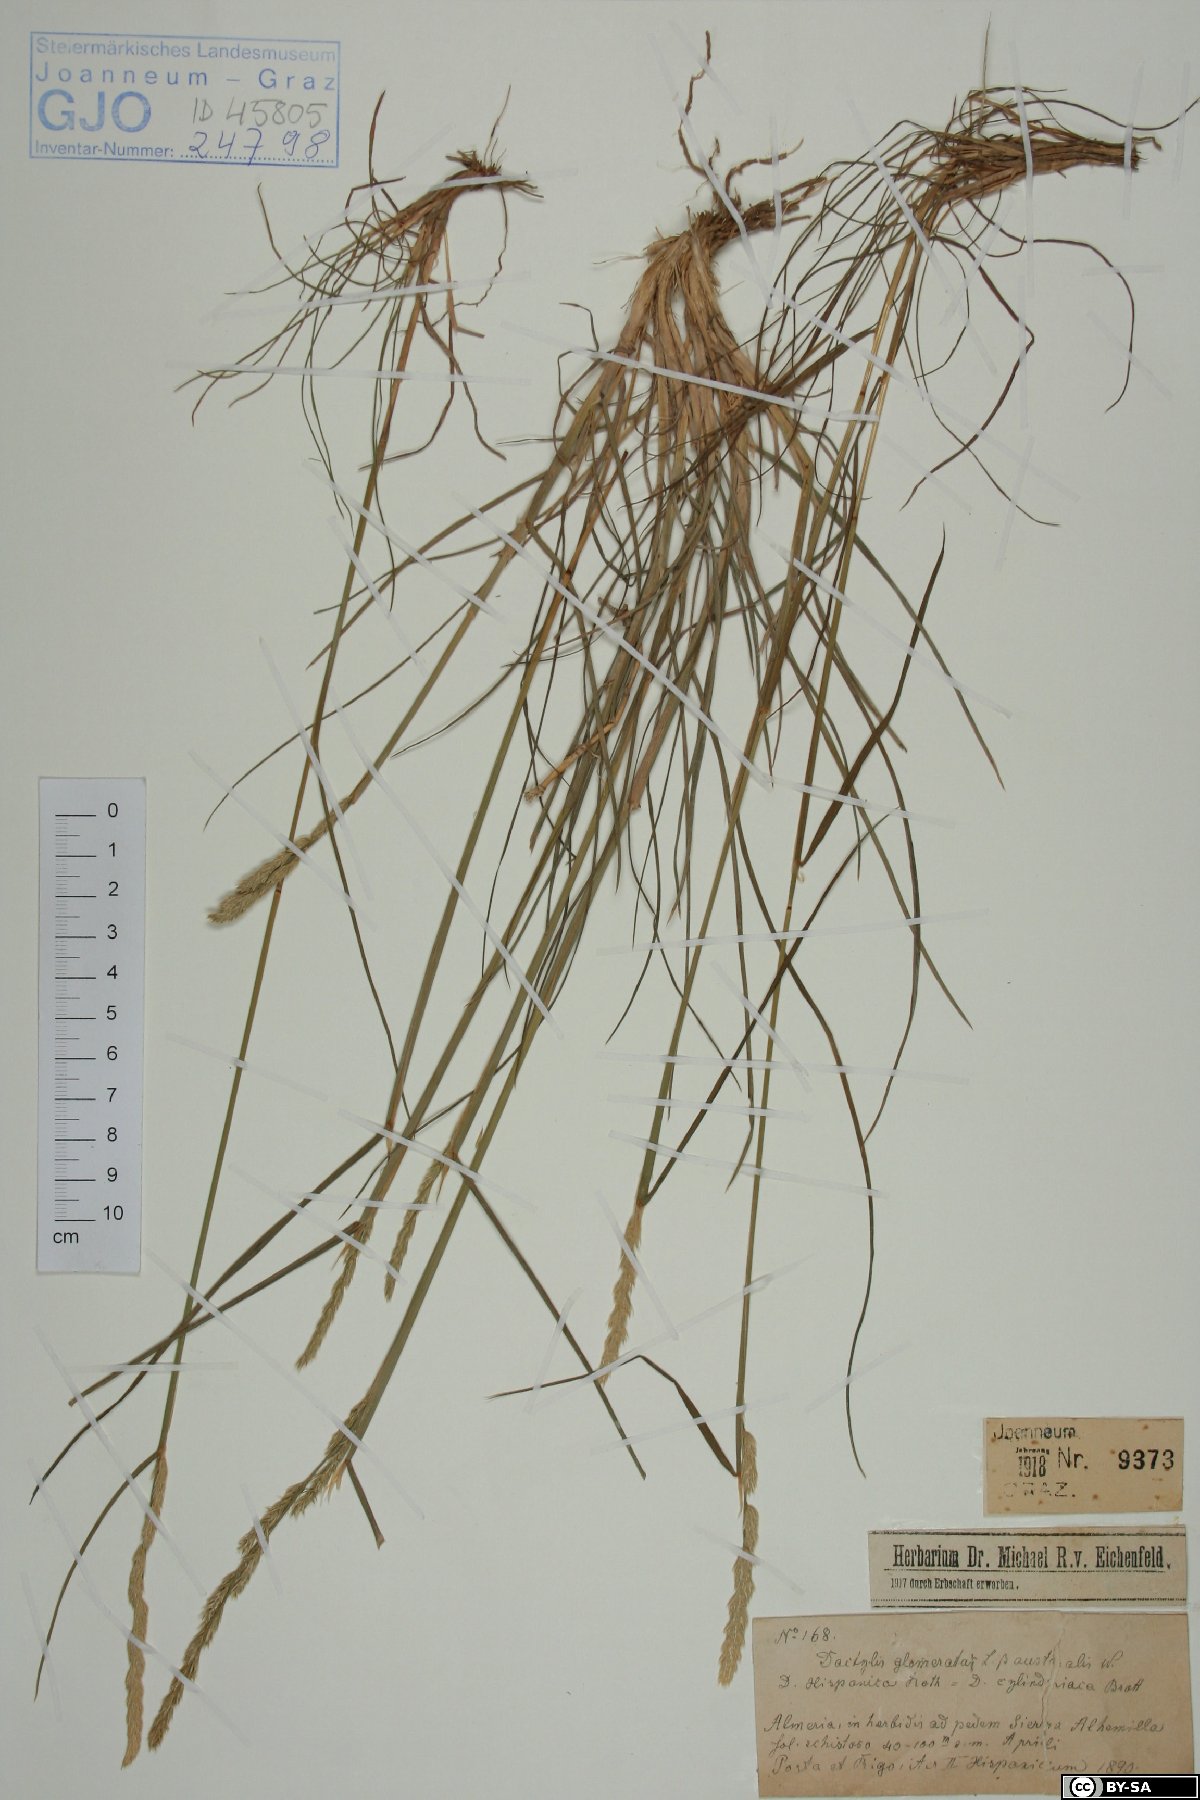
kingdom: Plantae
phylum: Tracheophyta
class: Liliopsida
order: Poales
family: Poaceae
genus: Dactylis
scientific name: Dactylis glomerata
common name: Orchardgrass
